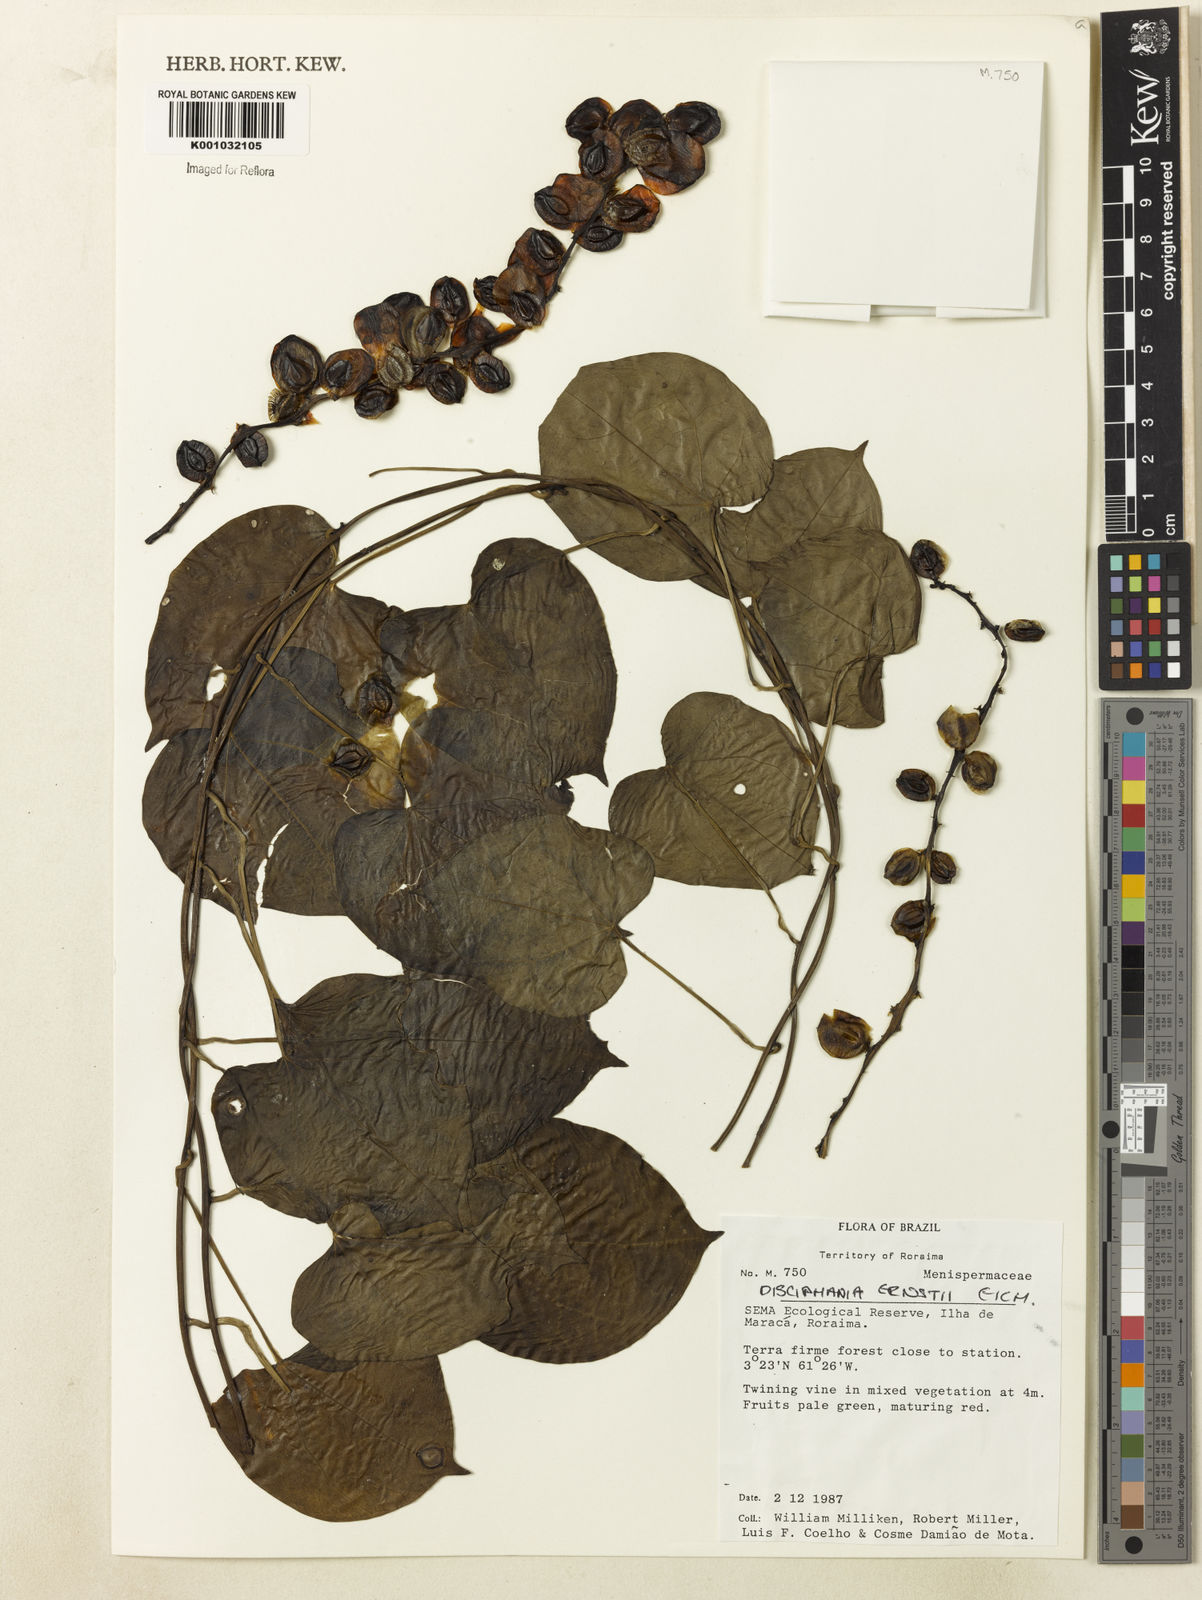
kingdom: Plantae
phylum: Tracheophyta
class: Magnoliopsida
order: Ranunculales
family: Menispermaceae
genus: Disciphania
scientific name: Disciphania ernstii
